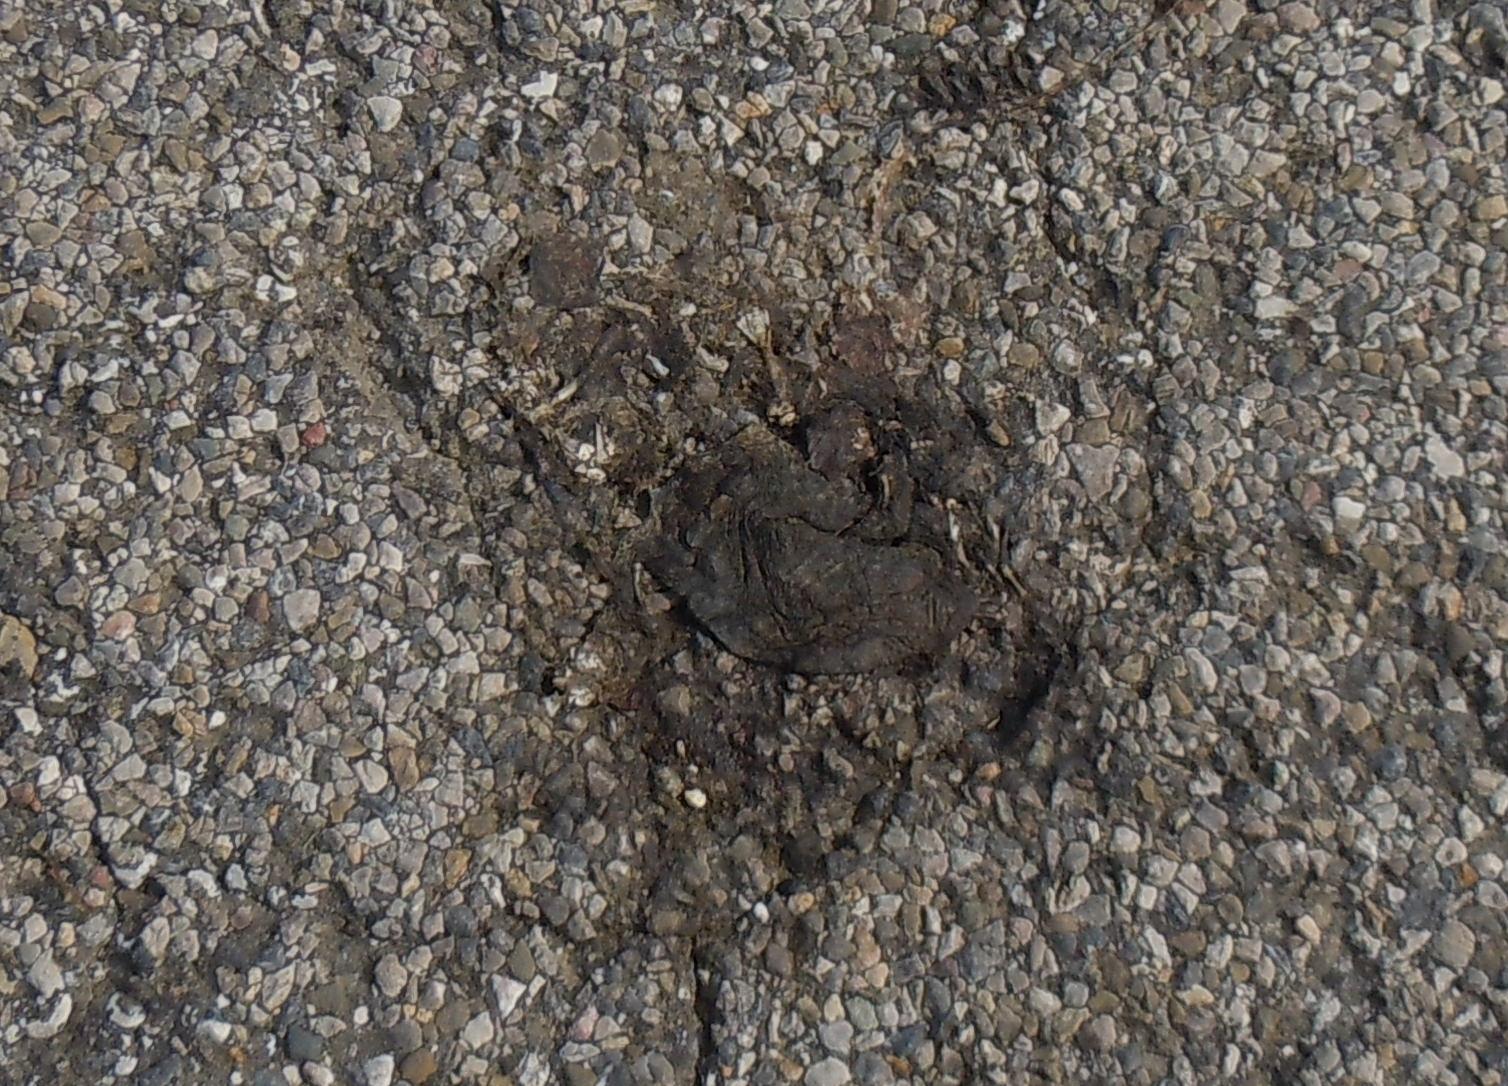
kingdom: Animalia
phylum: Chordata
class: Amphibia
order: Anura
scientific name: Anura
